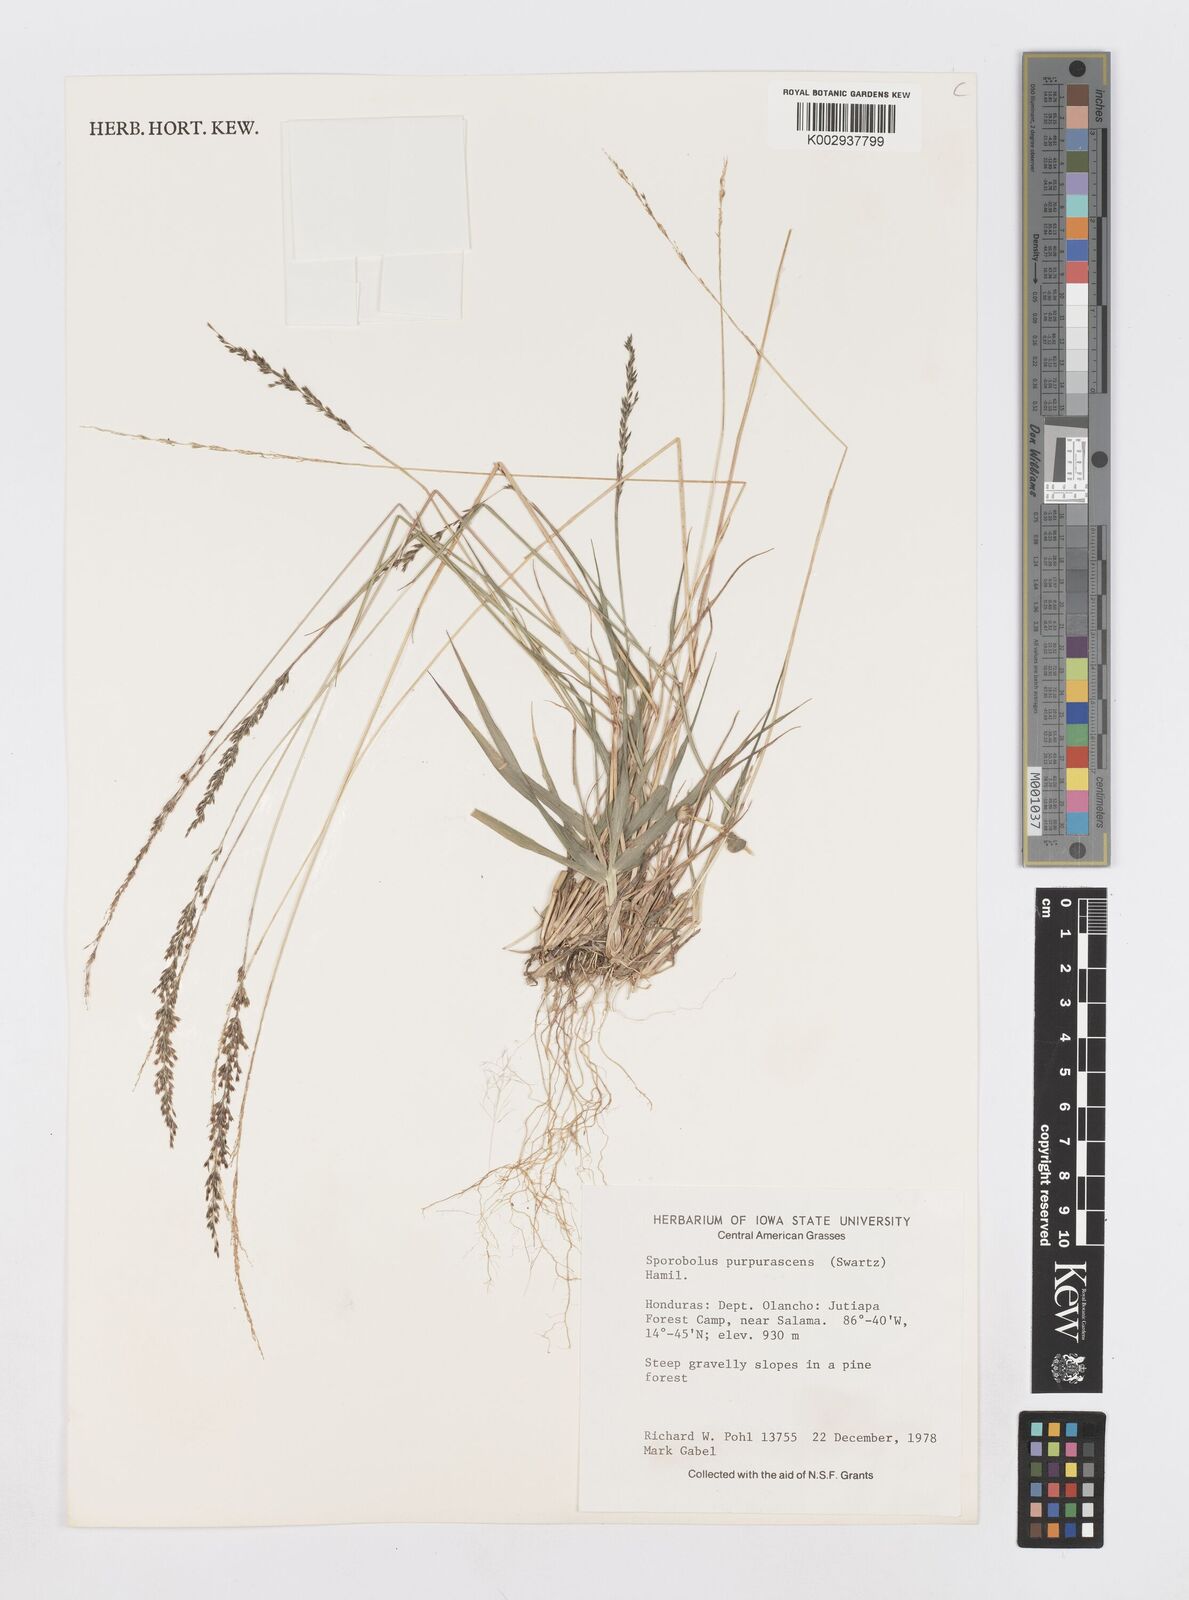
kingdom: Plantae
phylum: Tracheophyta
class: Liliopsida
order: Poales
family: Poaceae
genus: Sporobolus
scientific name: Sporobolus purpurascens
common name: Purple dropseed
